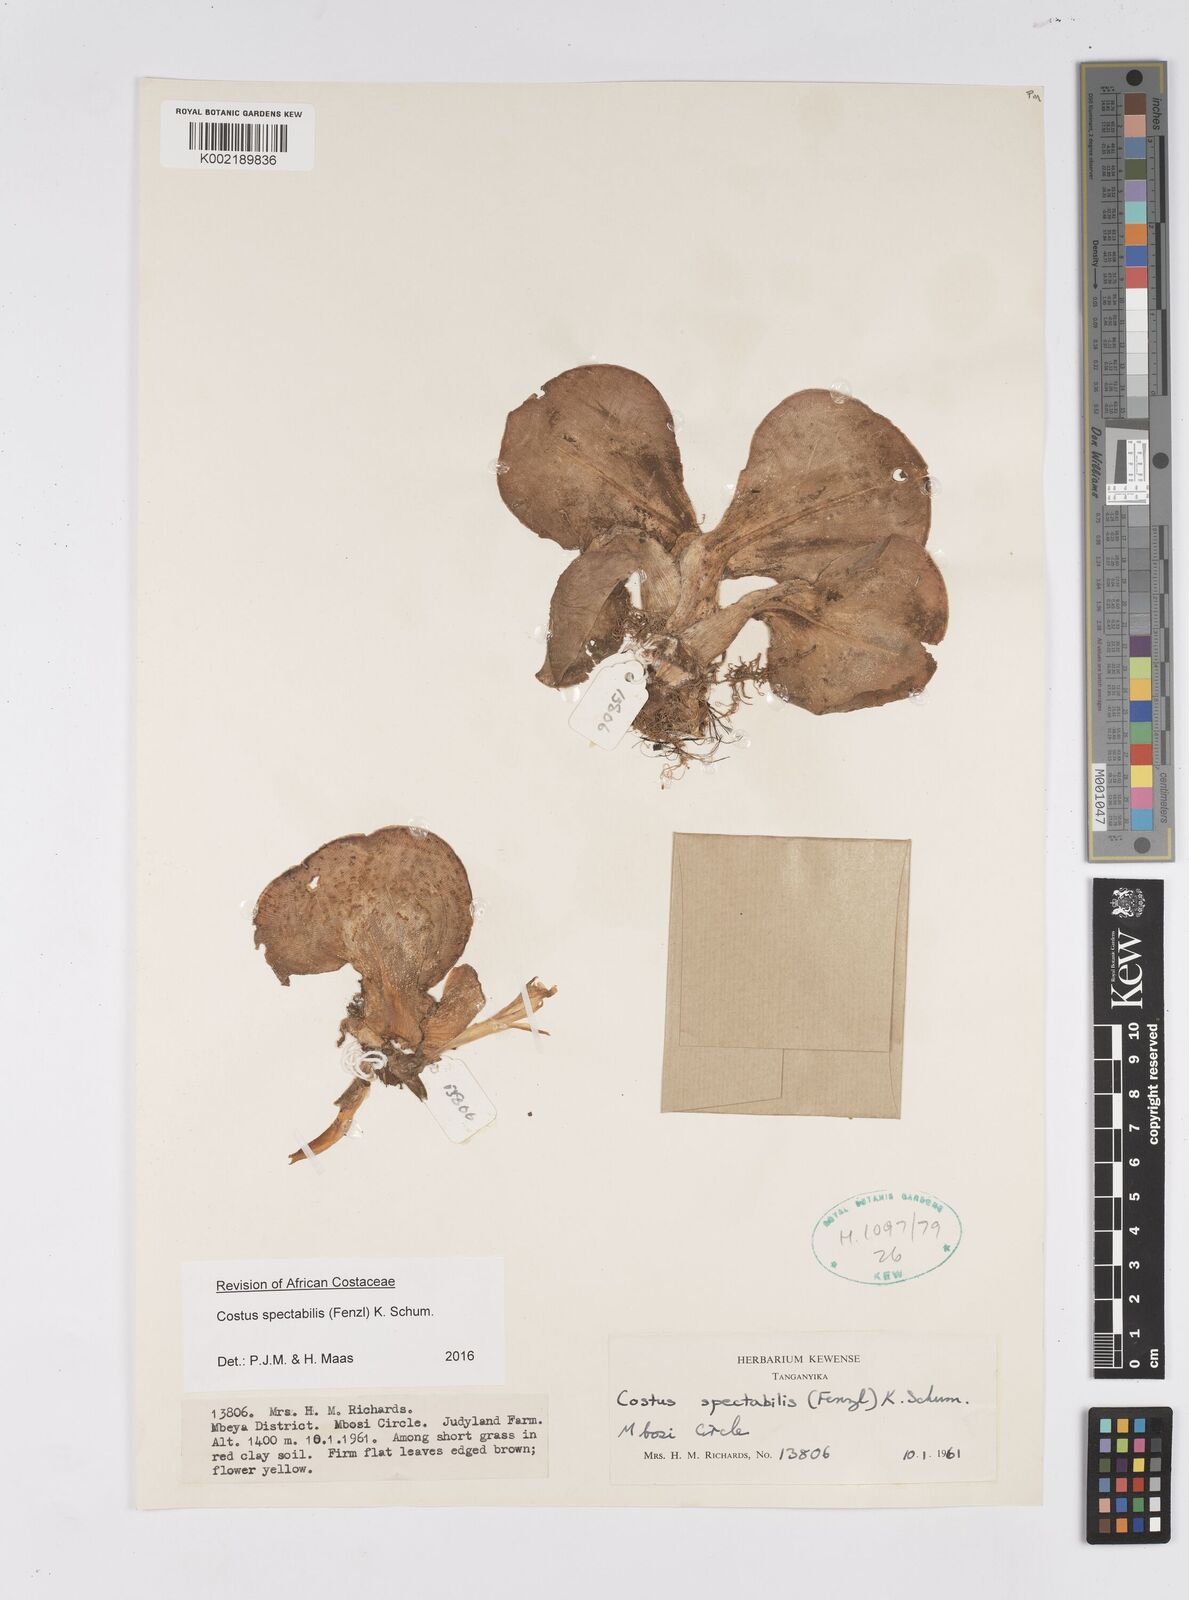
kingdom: Plantae
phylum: Tracheophyta
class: Liliopsida
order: Zingiberales
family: Costaceae
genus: Costus
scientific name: Costus spectabilis
